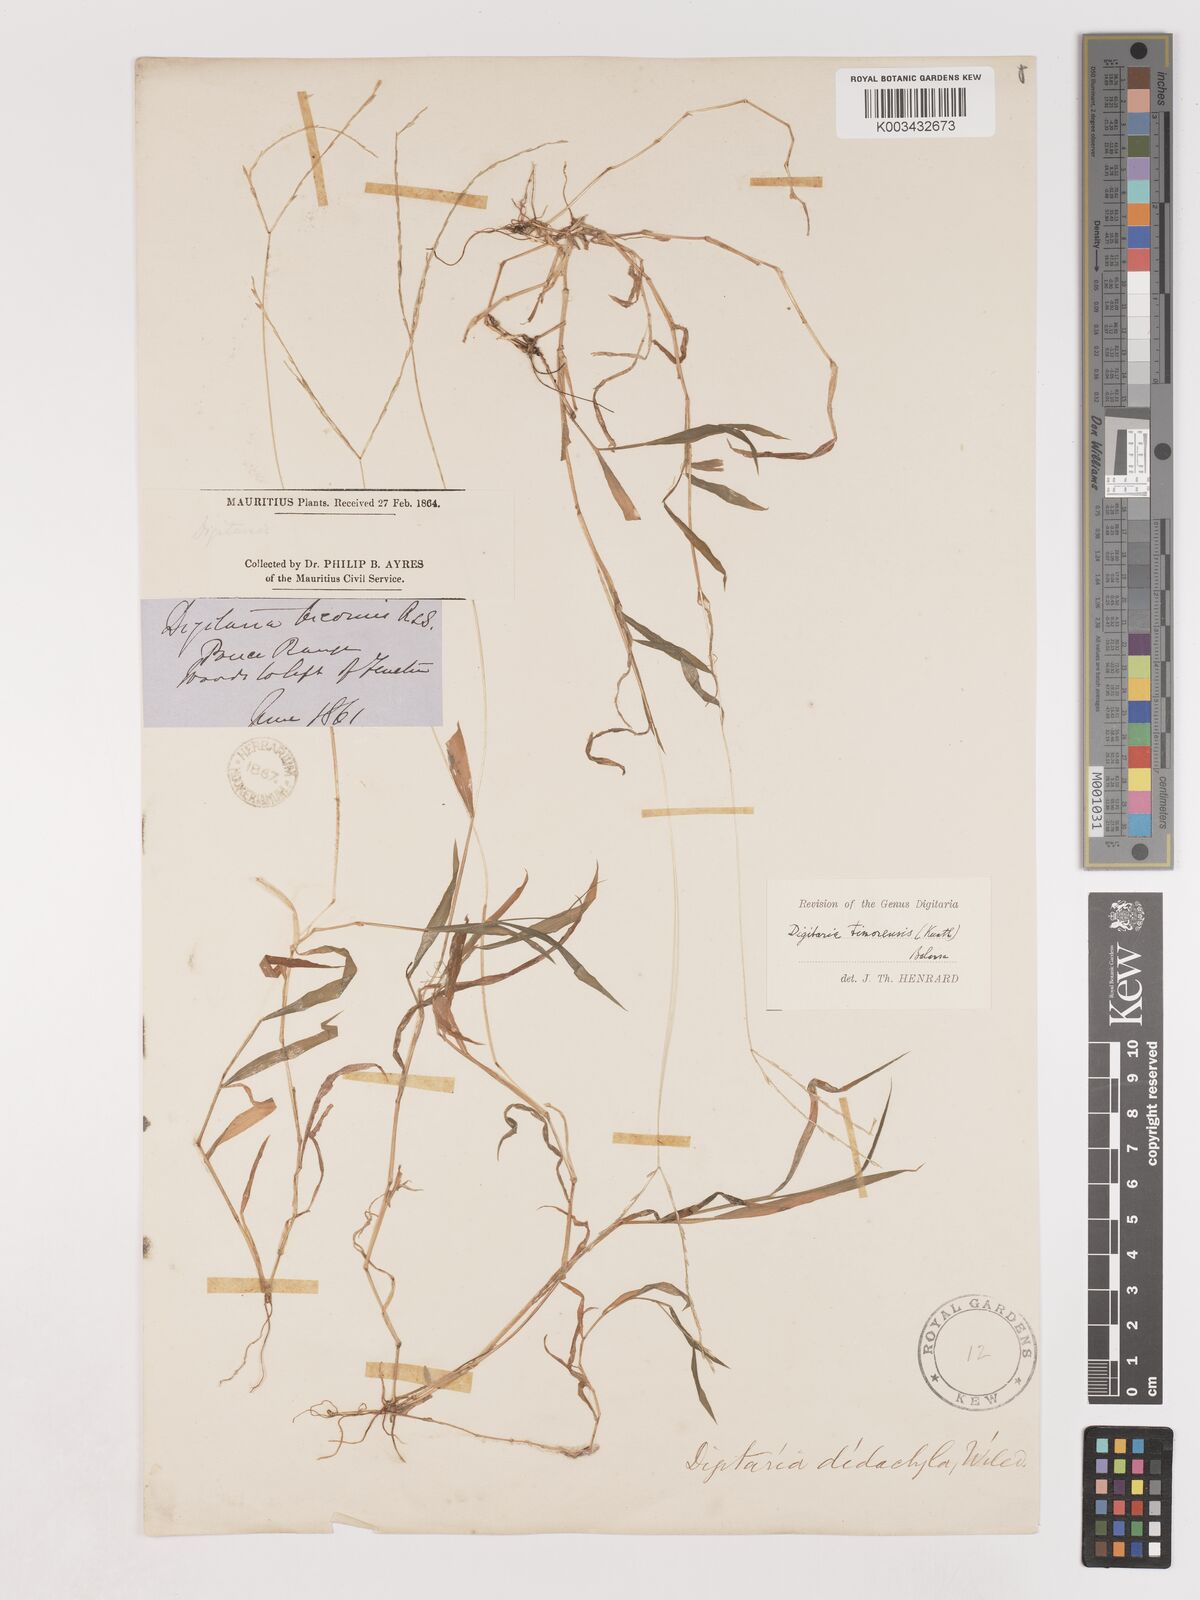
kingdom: Plantae
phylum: Tracheophyta
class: Liliopsida
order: Poales
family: Poaceae
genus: Digitaria
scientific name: Digitaria radicosa
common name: Trailing crabgrass
